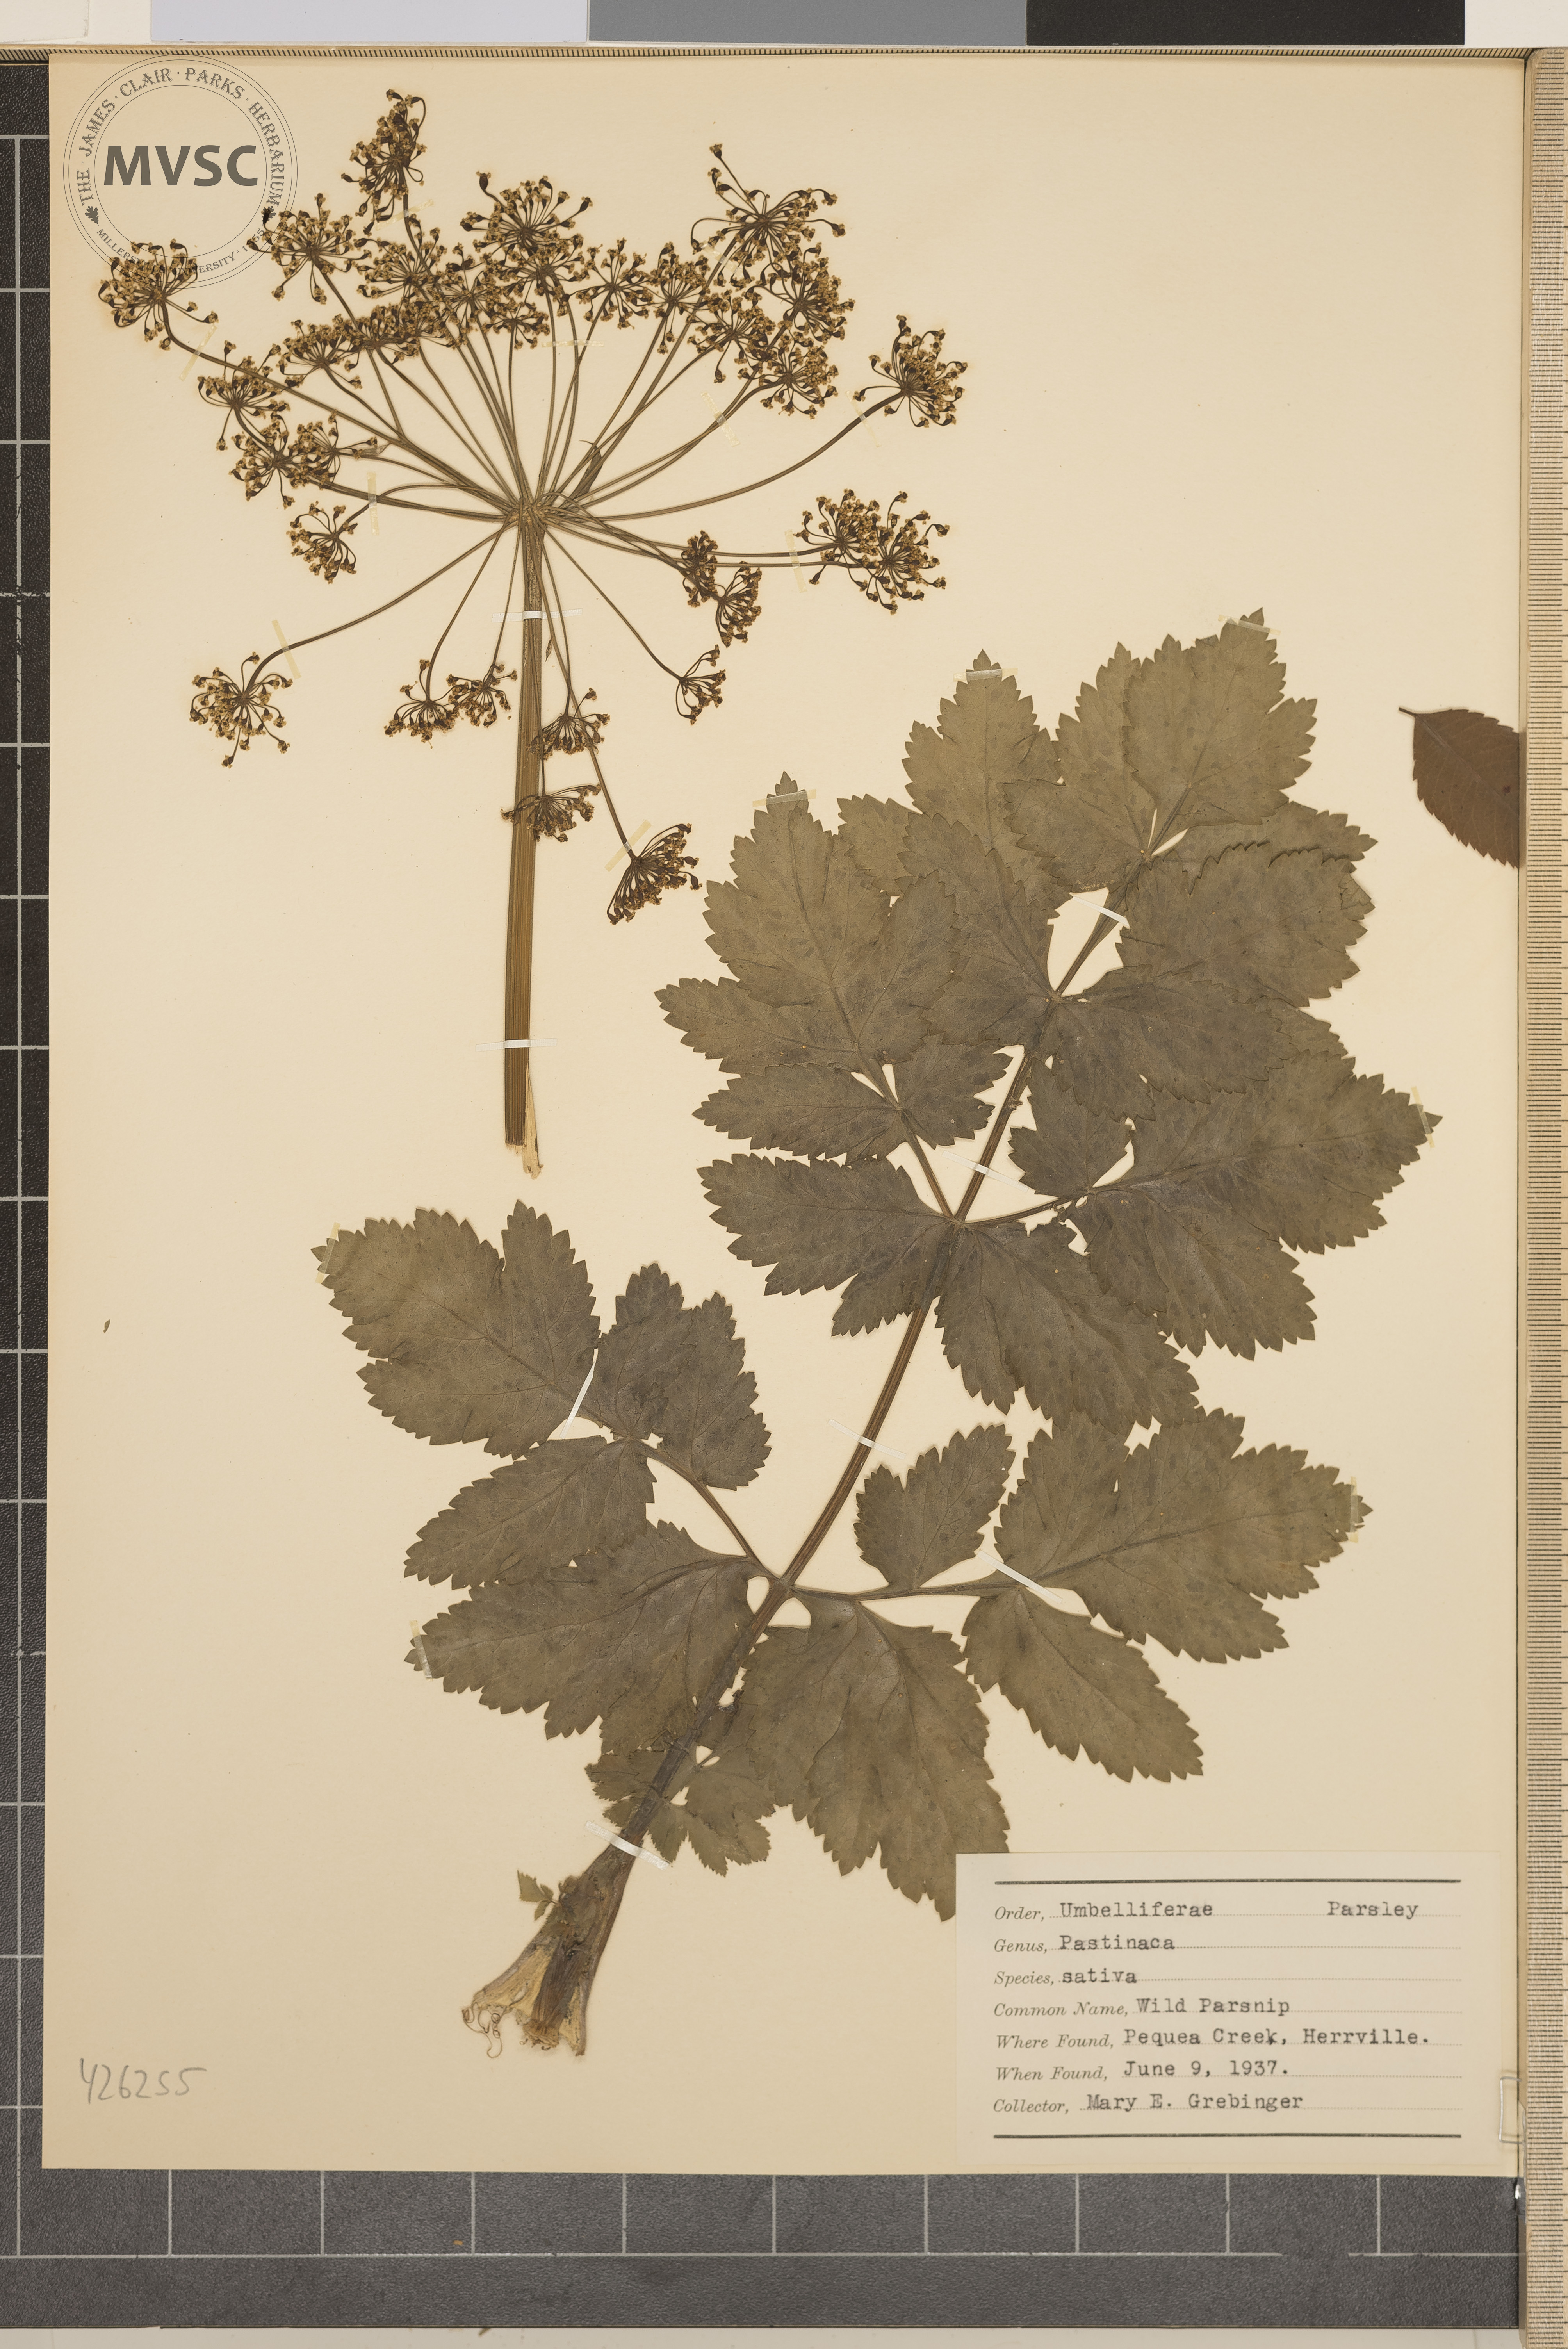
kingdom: Plantae
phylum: Tracheophyta
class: Magnoliopsida
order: Apiales
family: Apiaceae
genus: Pastinaca
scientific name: Pastinaca sativa
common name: Wild Parsnip
